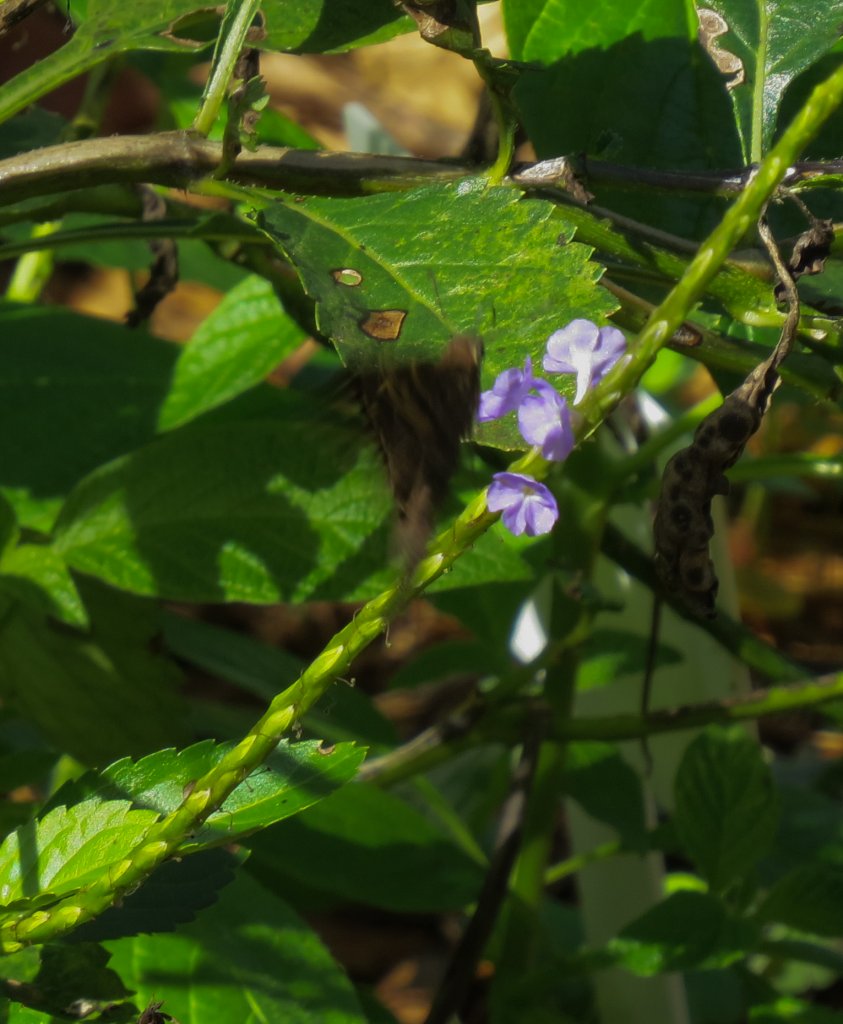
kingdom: Animalia
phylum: Arthropoda
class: Insecta
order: Lepidoptera
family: Hesperiidae
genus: Urbanus
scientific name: Urbanus dorantes
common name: Dorantes Longtail
